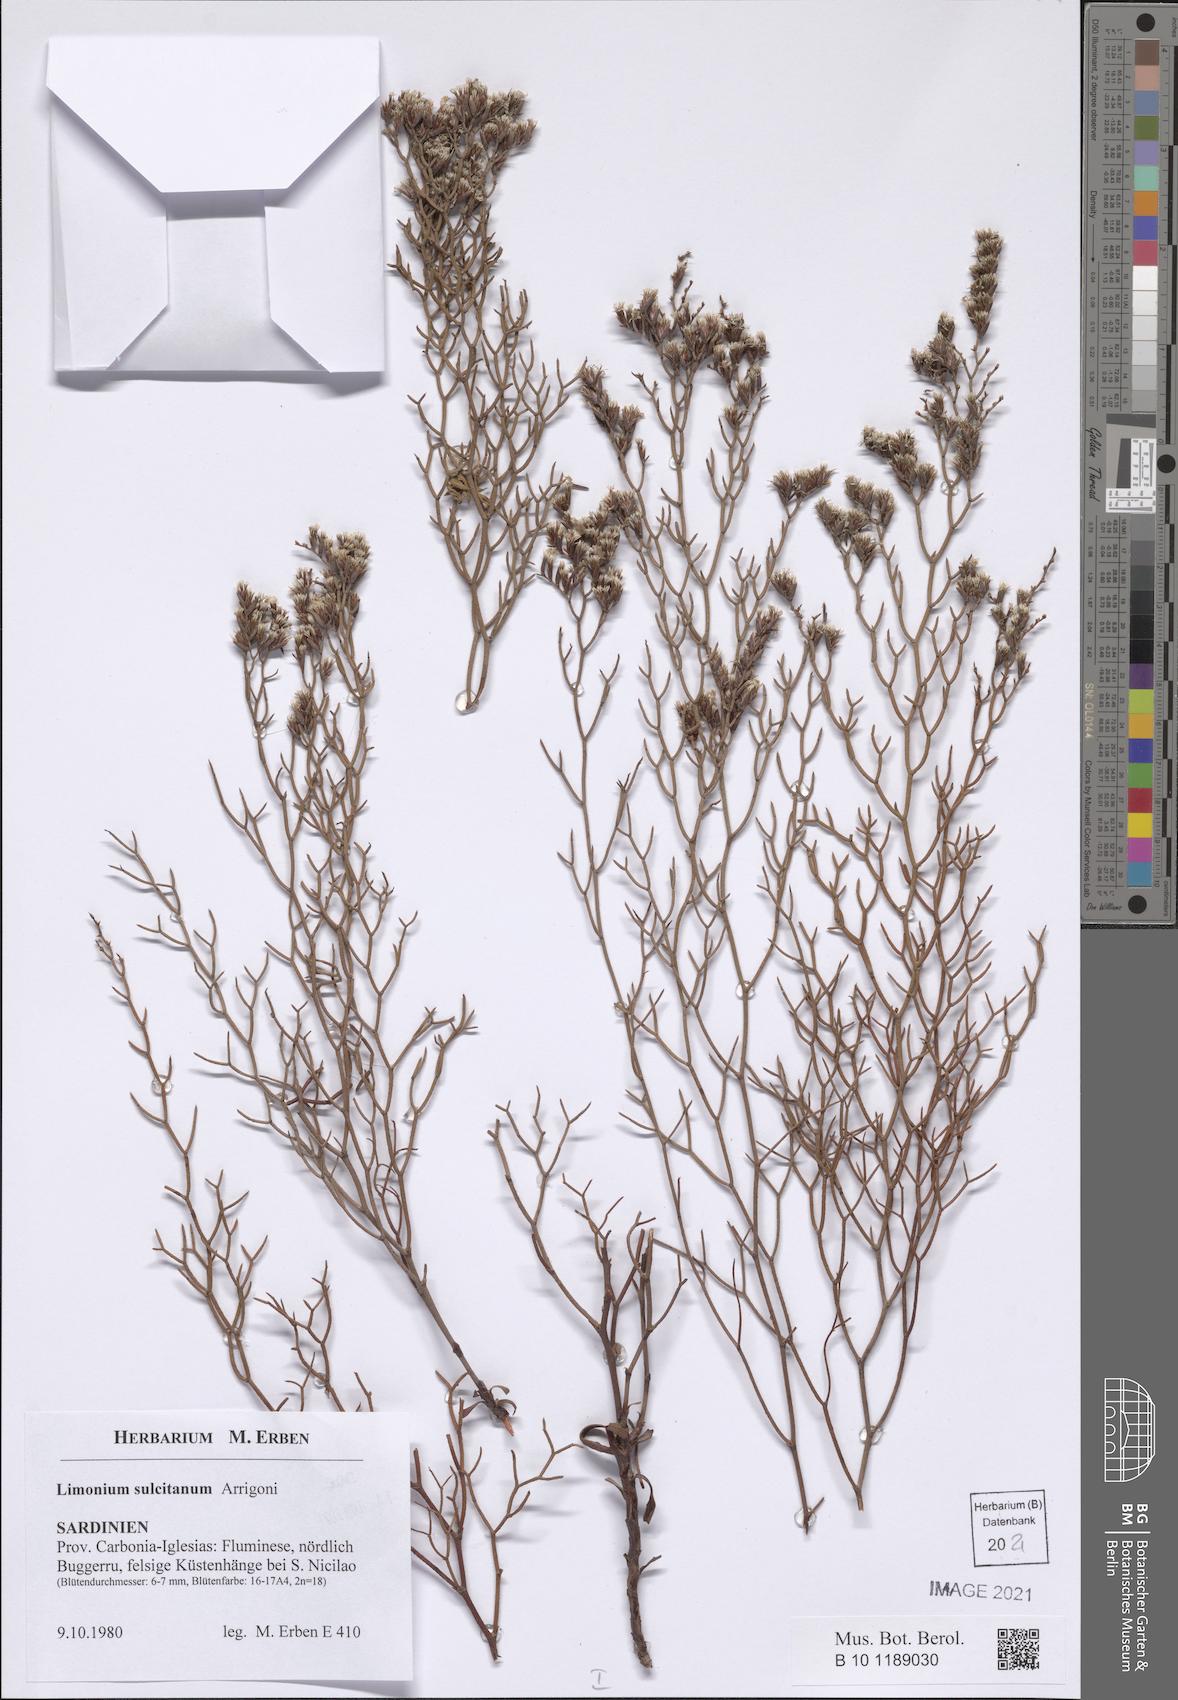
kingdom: Plantae
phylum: Tracheophyta
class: Magnoliopsida
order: Caryophyllales
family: Plumbaginaceae
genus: Limonium
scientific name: Limonium sulcitanum
